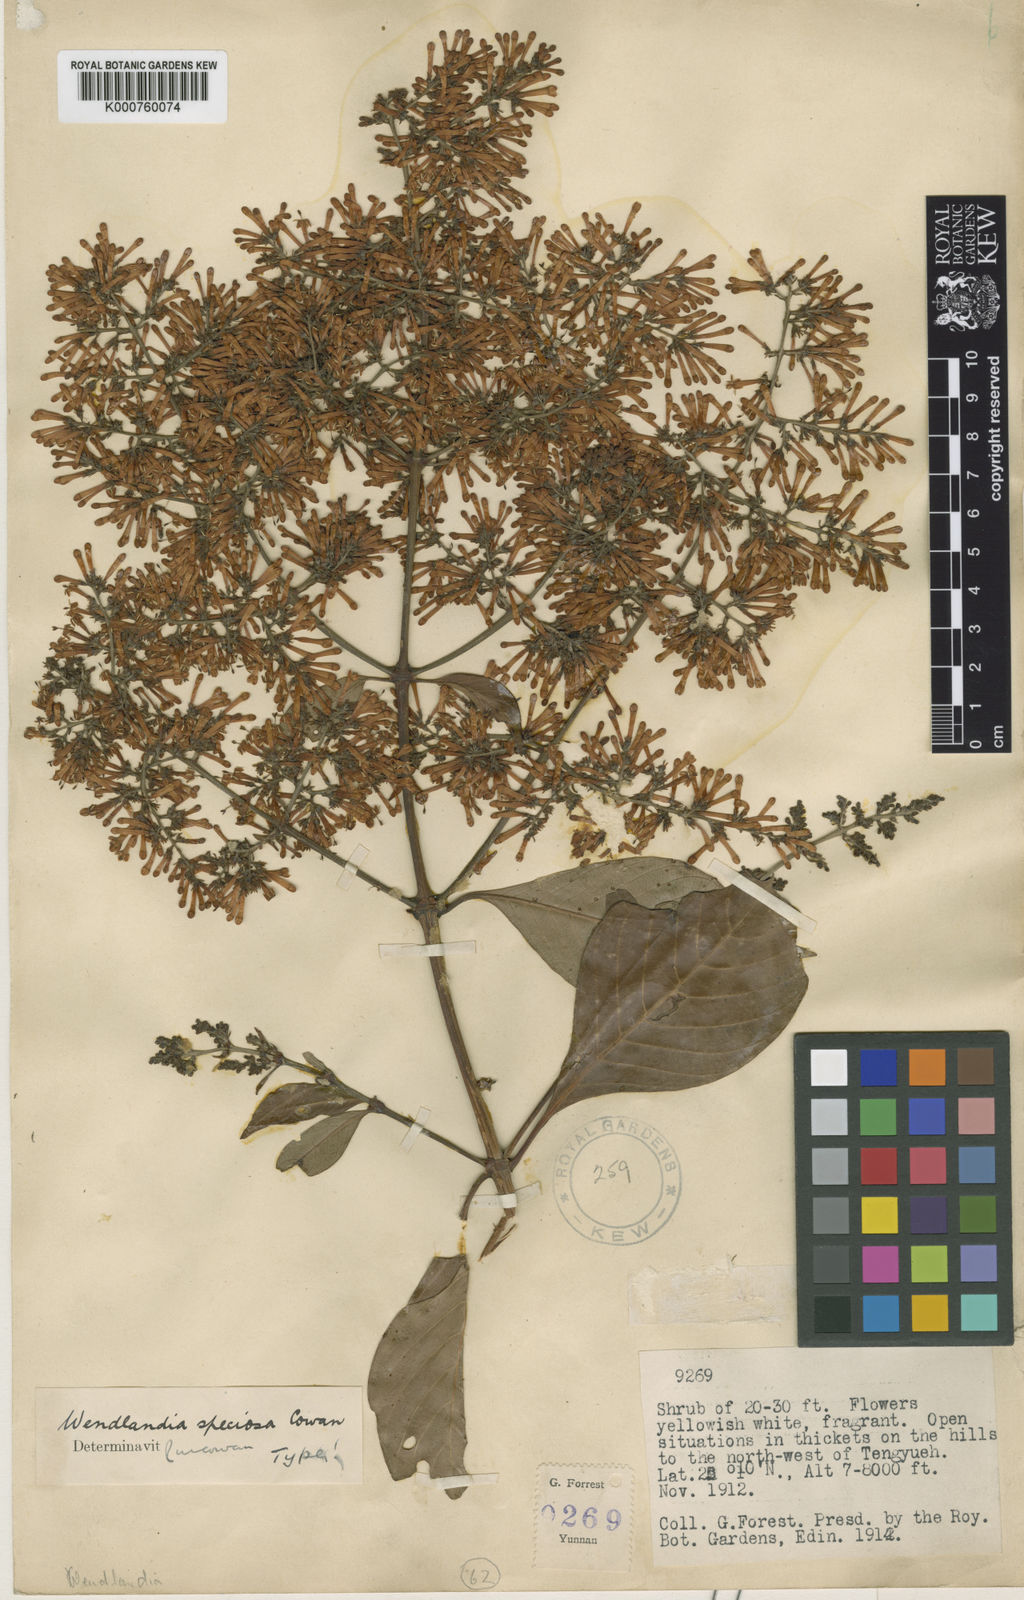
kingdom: Plantae
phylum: Tracheophyta
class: Magnoliopsida
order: Gentianales
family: Rubiaceae
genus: Wendlandia
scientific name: Wendlandia speciosa
